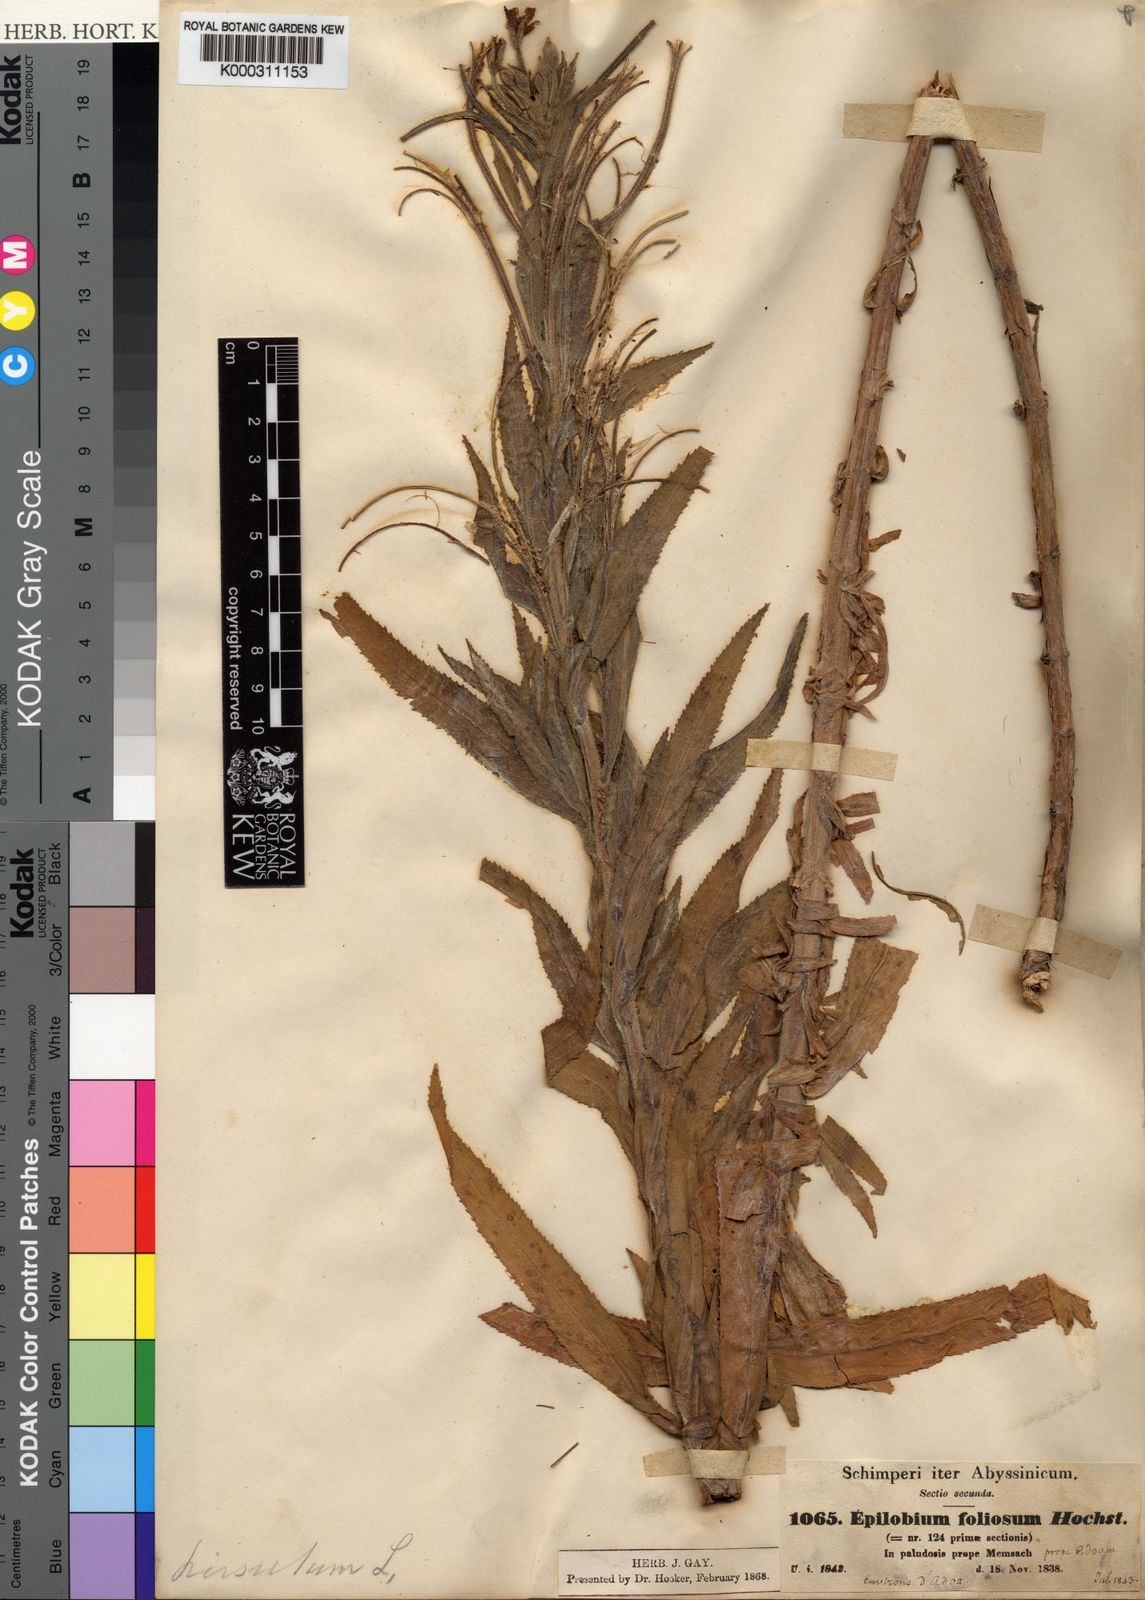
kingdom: Plantae
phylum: Tracheophyta
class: Magnoliopsida
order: Myrtales
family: Onagraceae
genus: Epilobium
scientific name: Epilobium hirsutum
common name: Great willowherb
